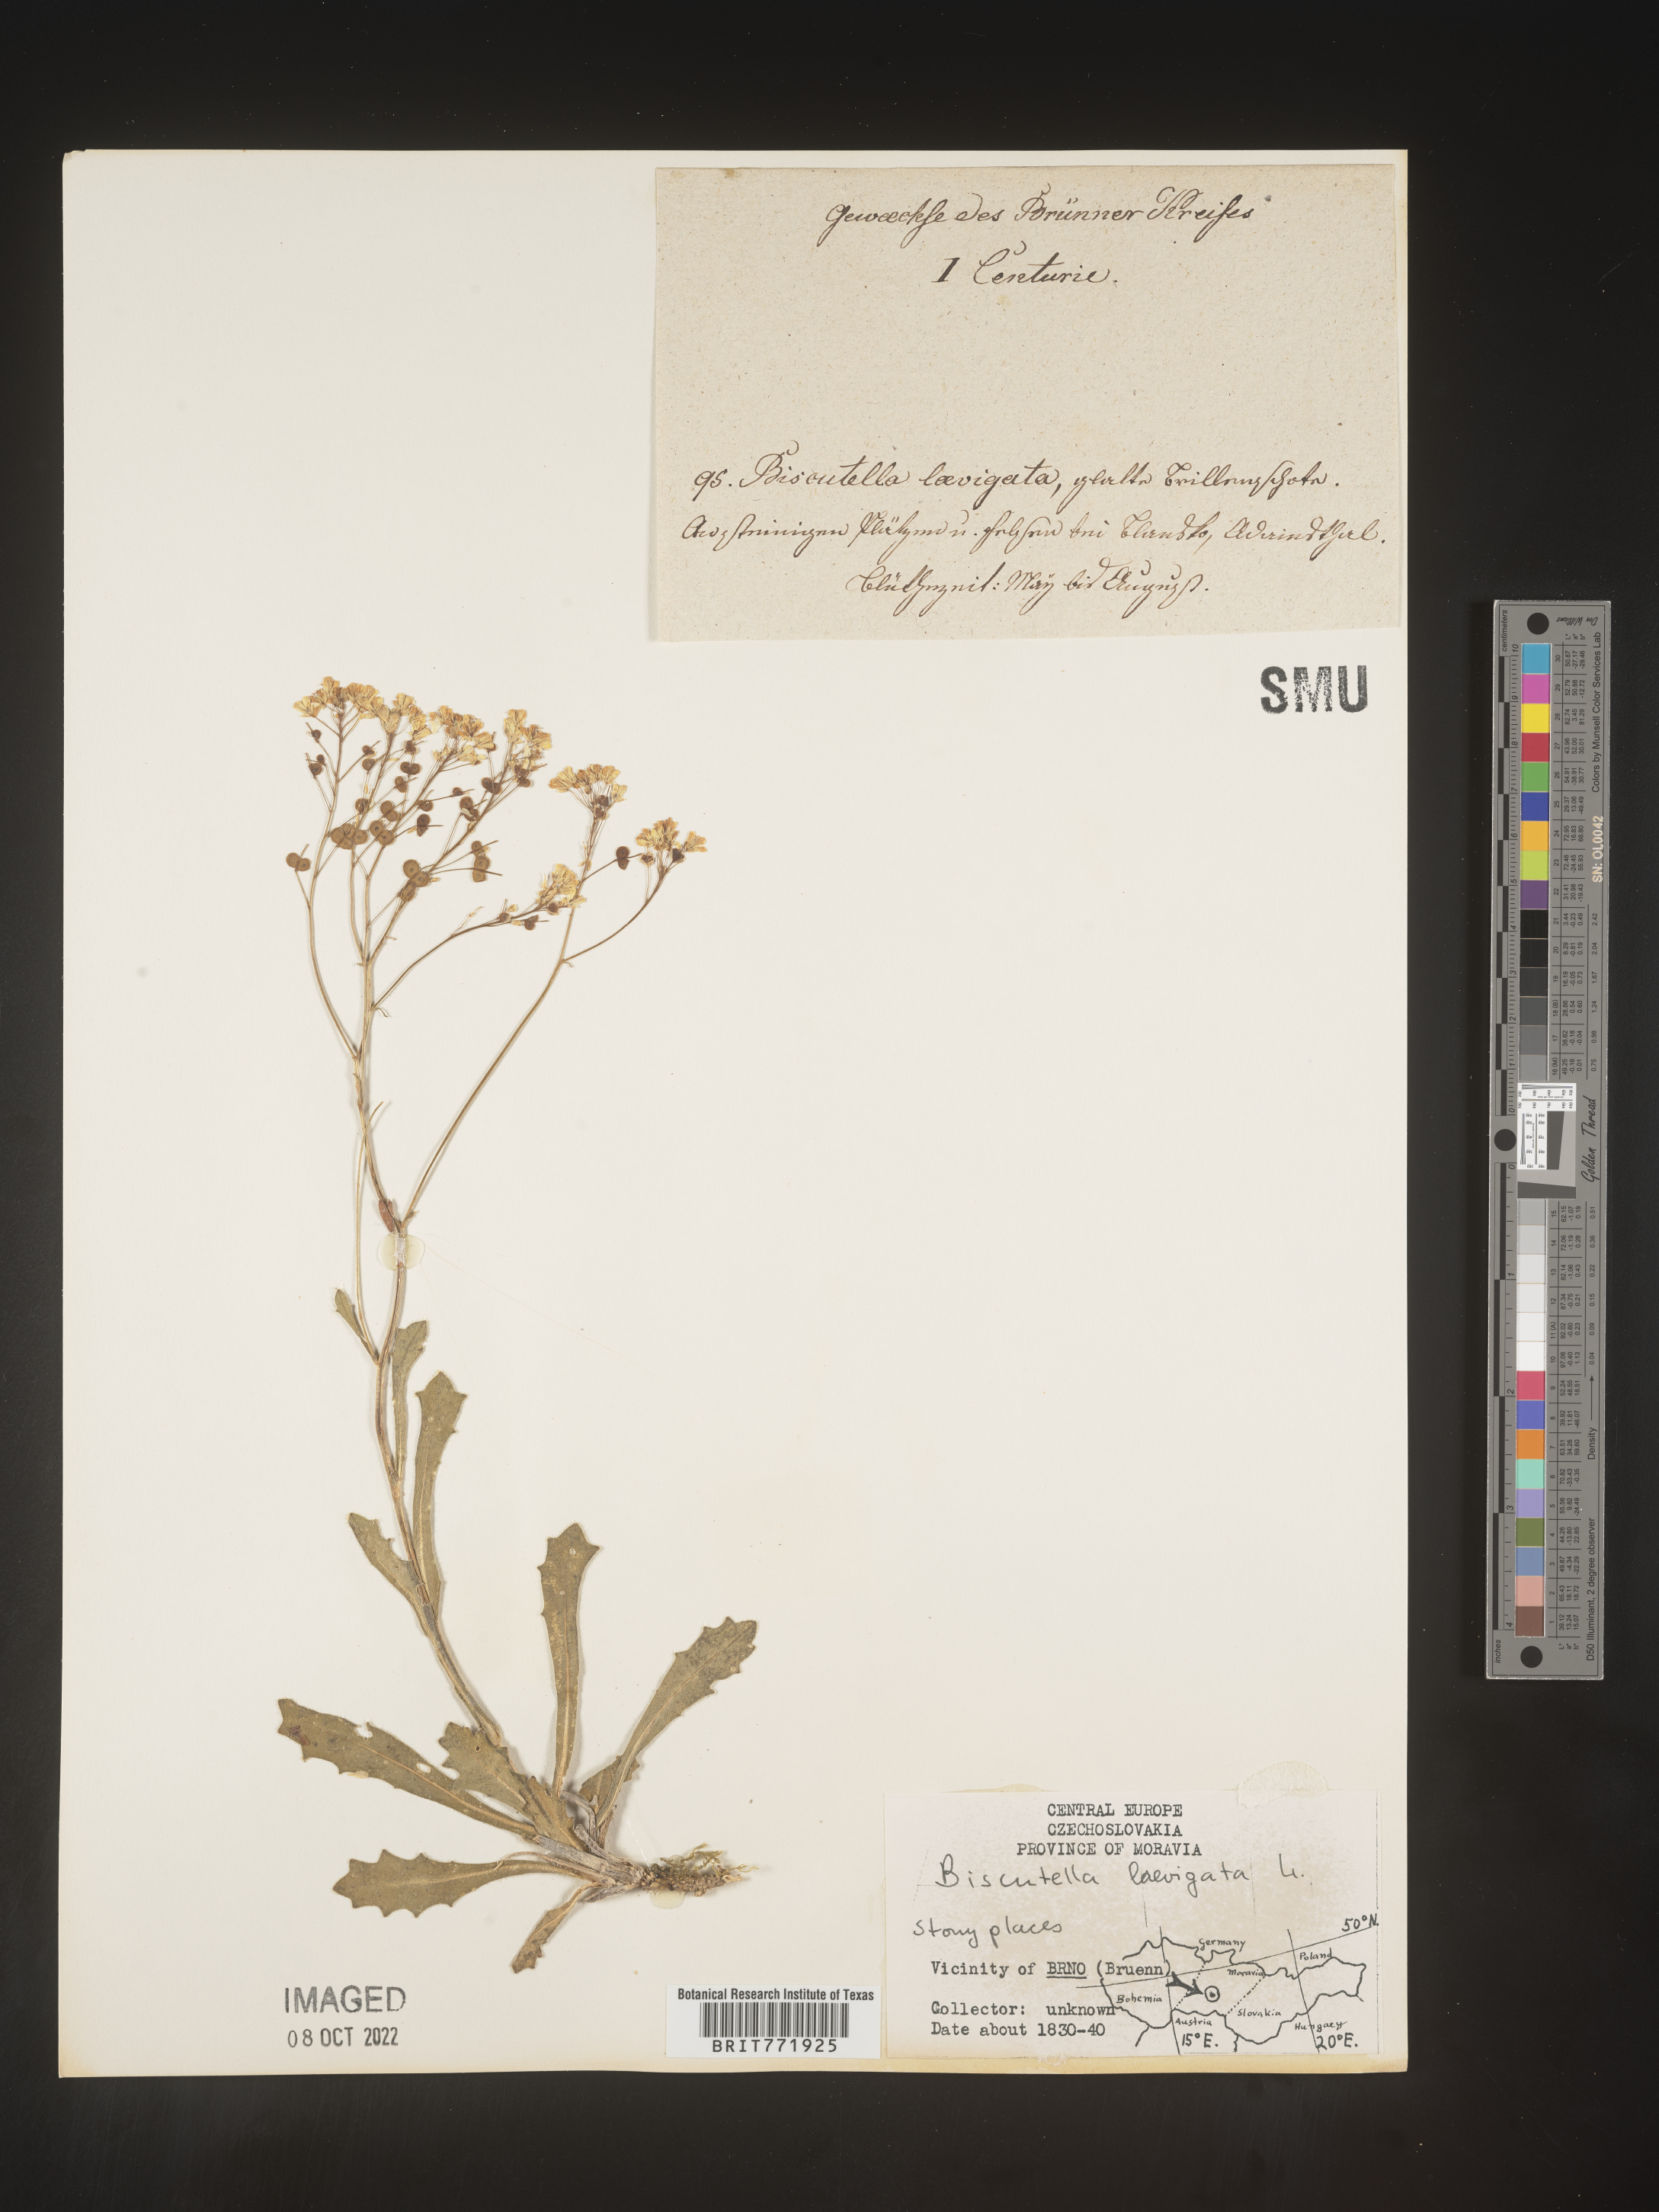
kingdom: Plantae
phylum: Tracheophyta
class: Magnoliopsida
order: Brassicales
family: Brassicaceae
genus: Biscutella
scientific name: Biscutella
